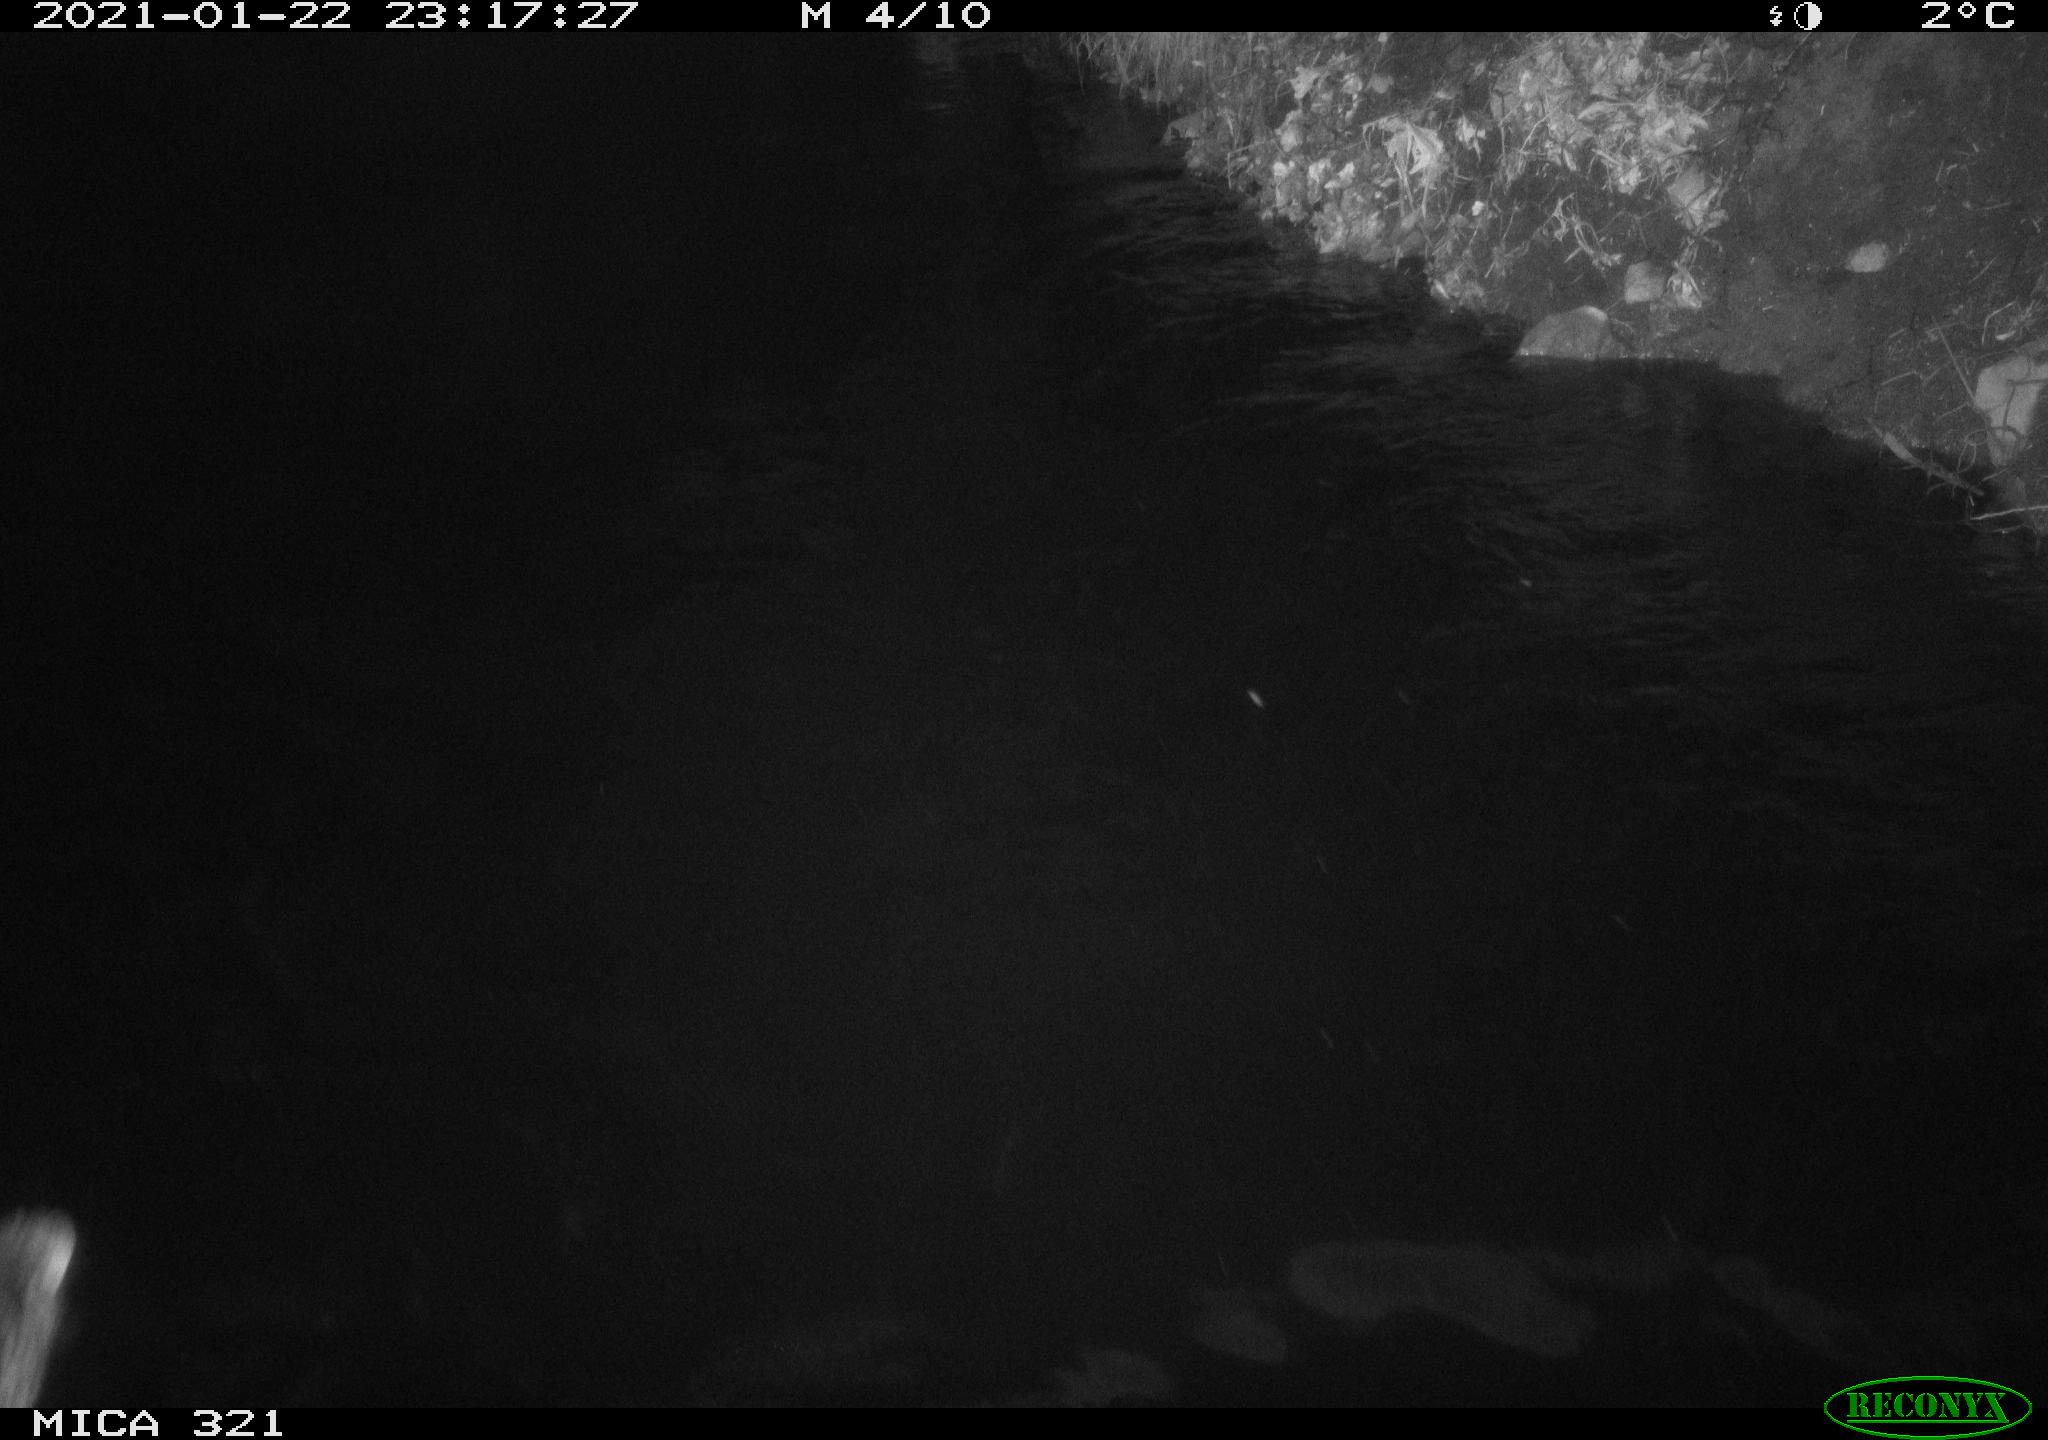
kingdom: Animalia
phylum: Chordata
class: Aves
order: Anseriformes
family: Anatidae
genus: Anas
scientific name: Anas platyrhynchos
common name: Mallard
